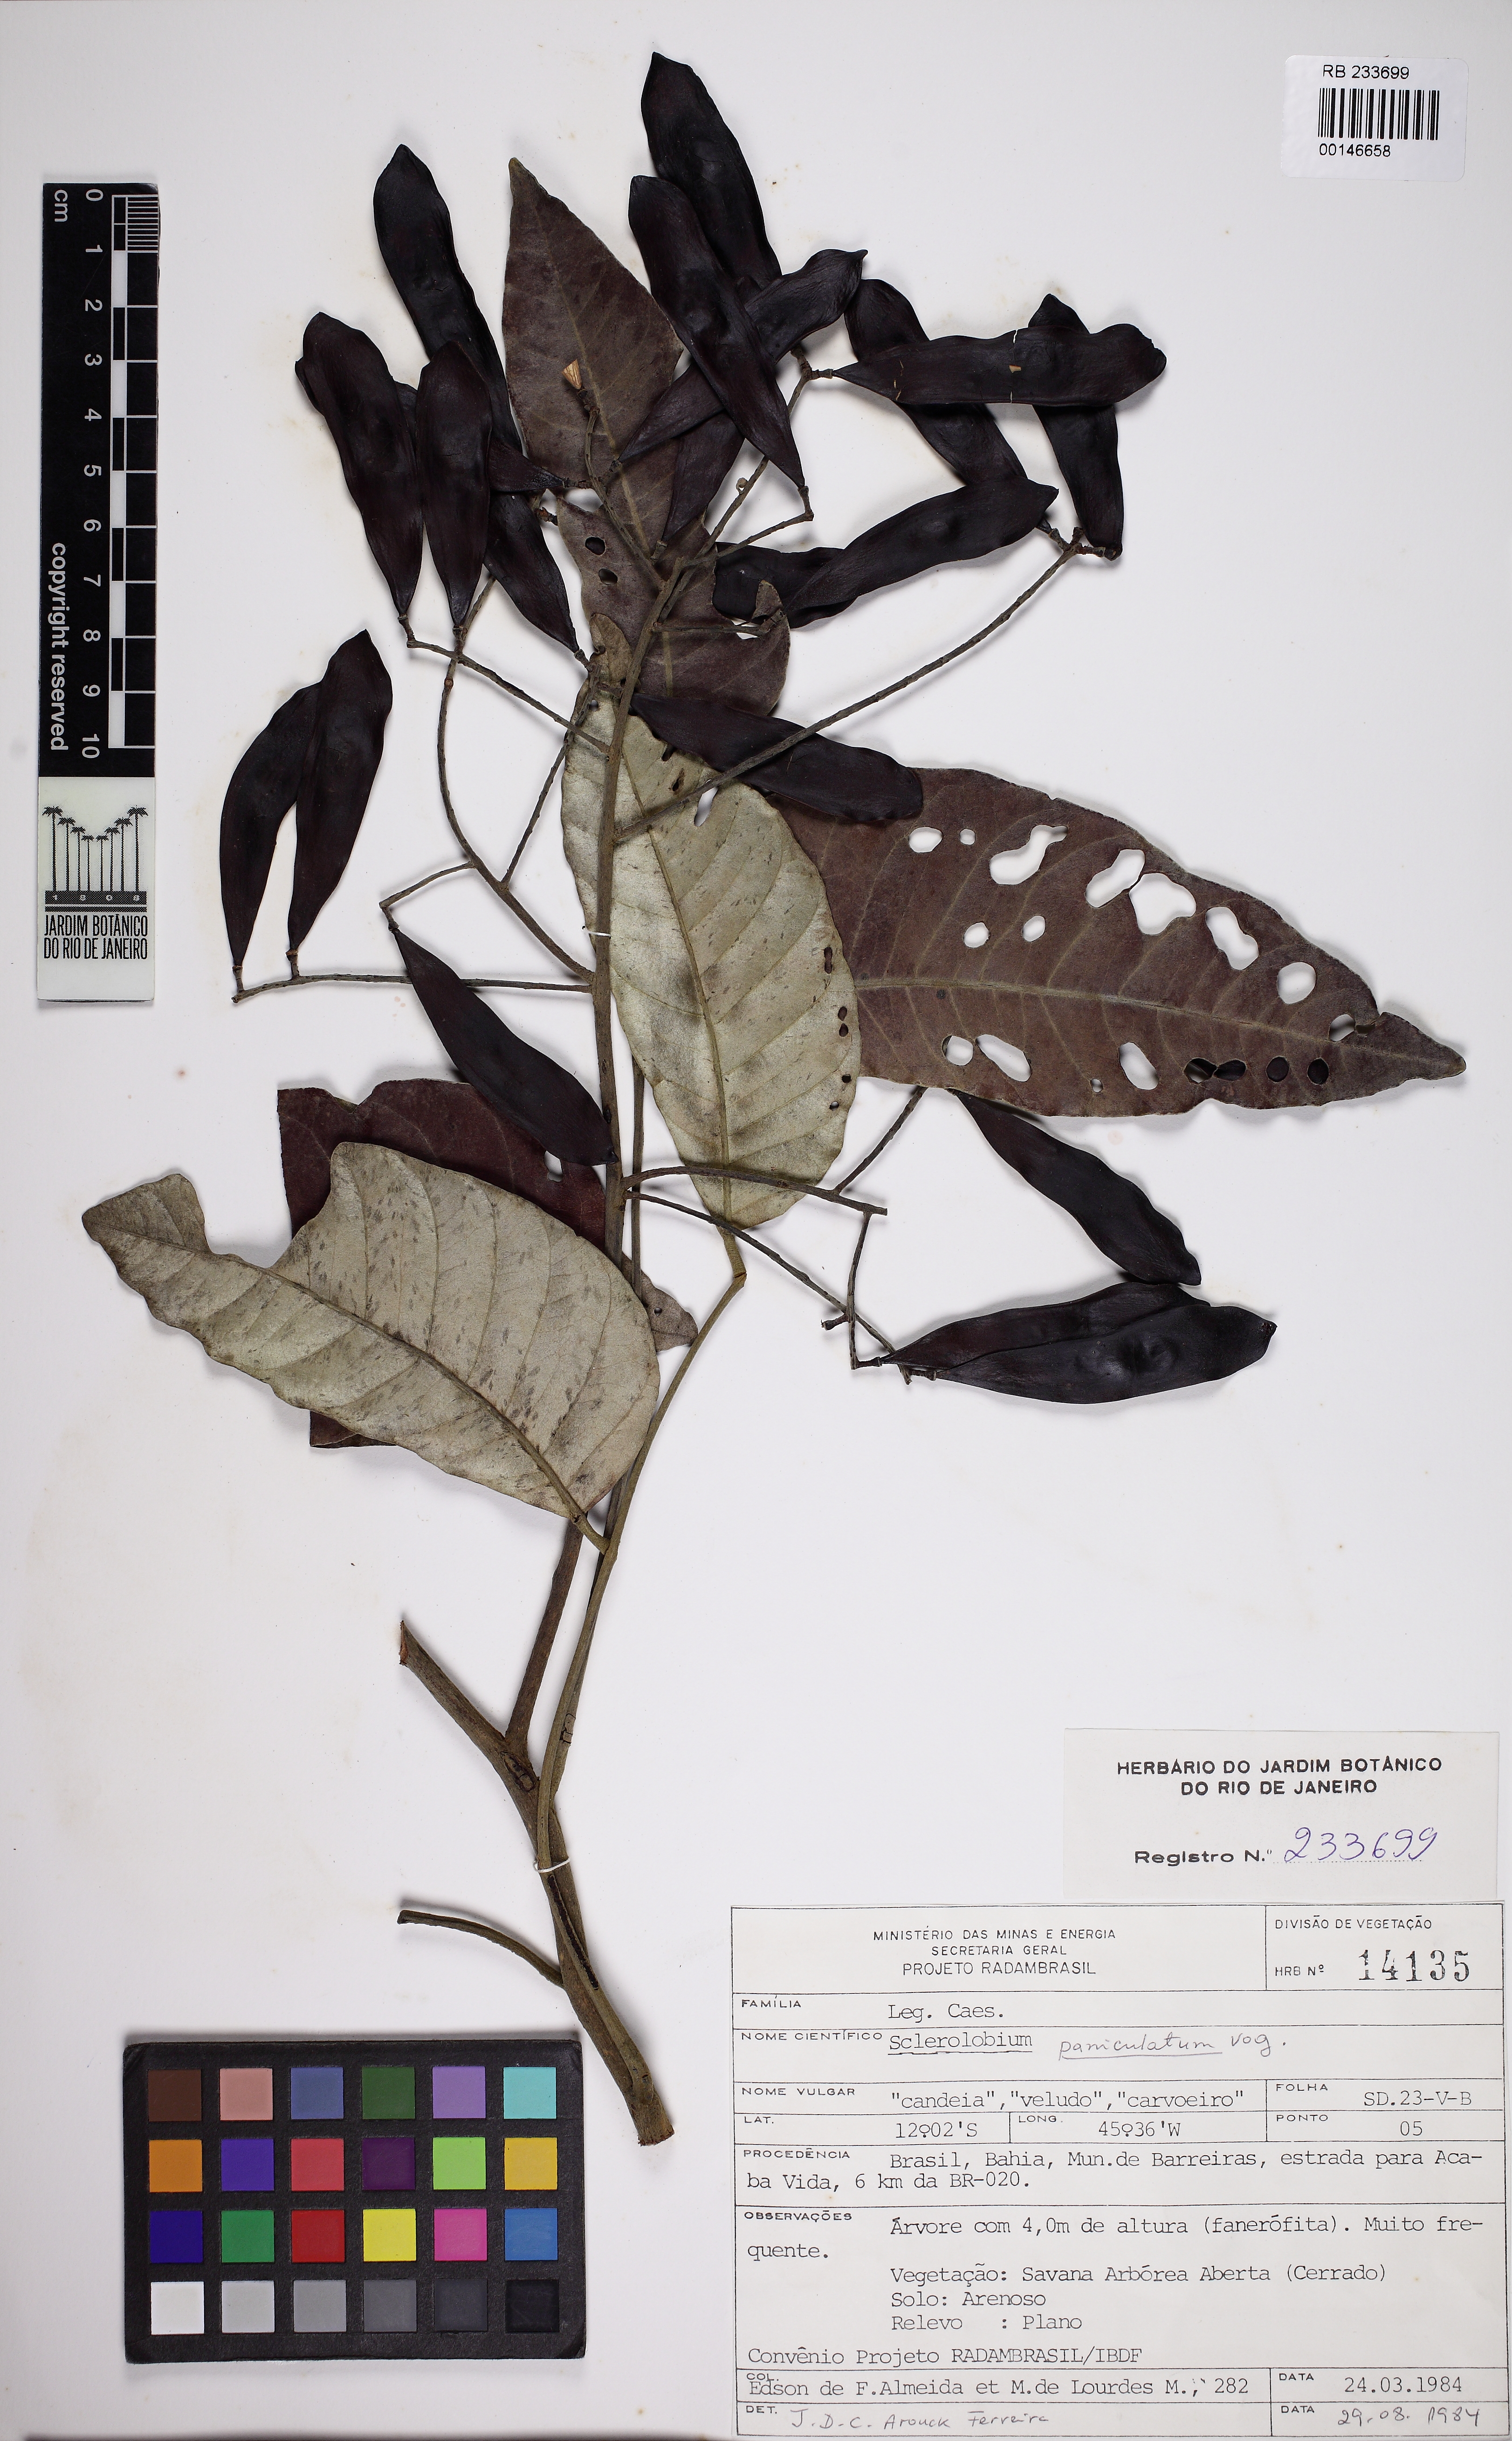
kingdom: Plantae
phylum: Tracheophyta
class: Magnoliopsida
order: Fabales
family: Fabaceae
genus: Tachigali
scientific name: Tachigali vulgaris
